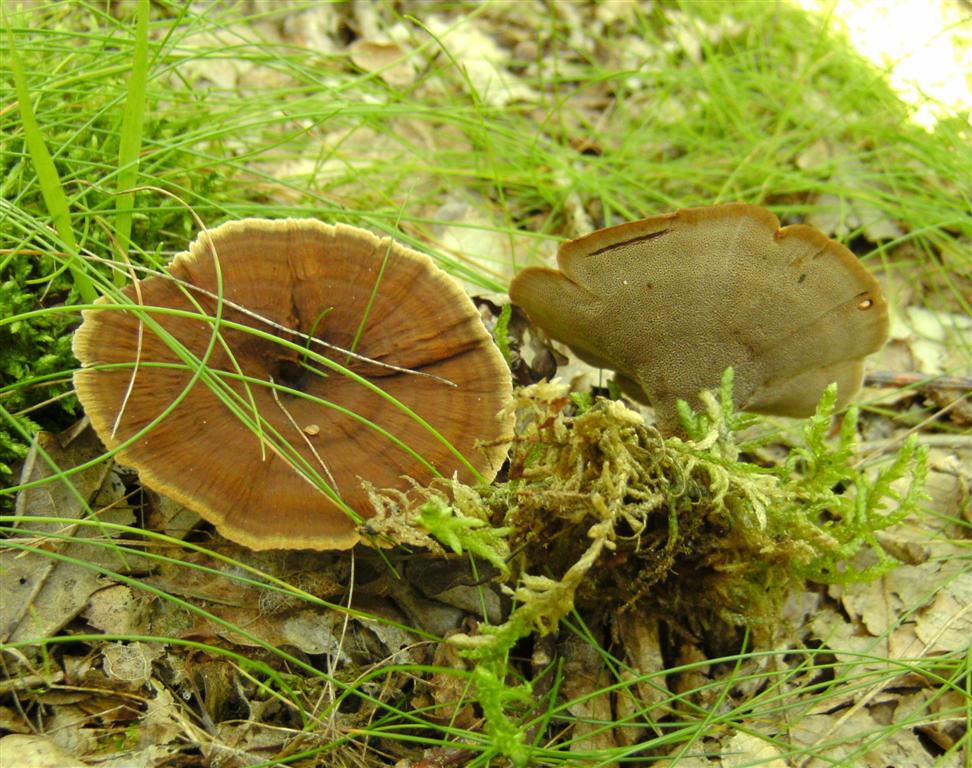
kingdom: Fungi
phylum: Basidiomycota
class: Agaricomycetes
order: Hymenochaetales
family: Hymenochaetaceae
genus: Coltricia
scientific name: Coltricia perennis
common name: almindelig sandporesvamp
